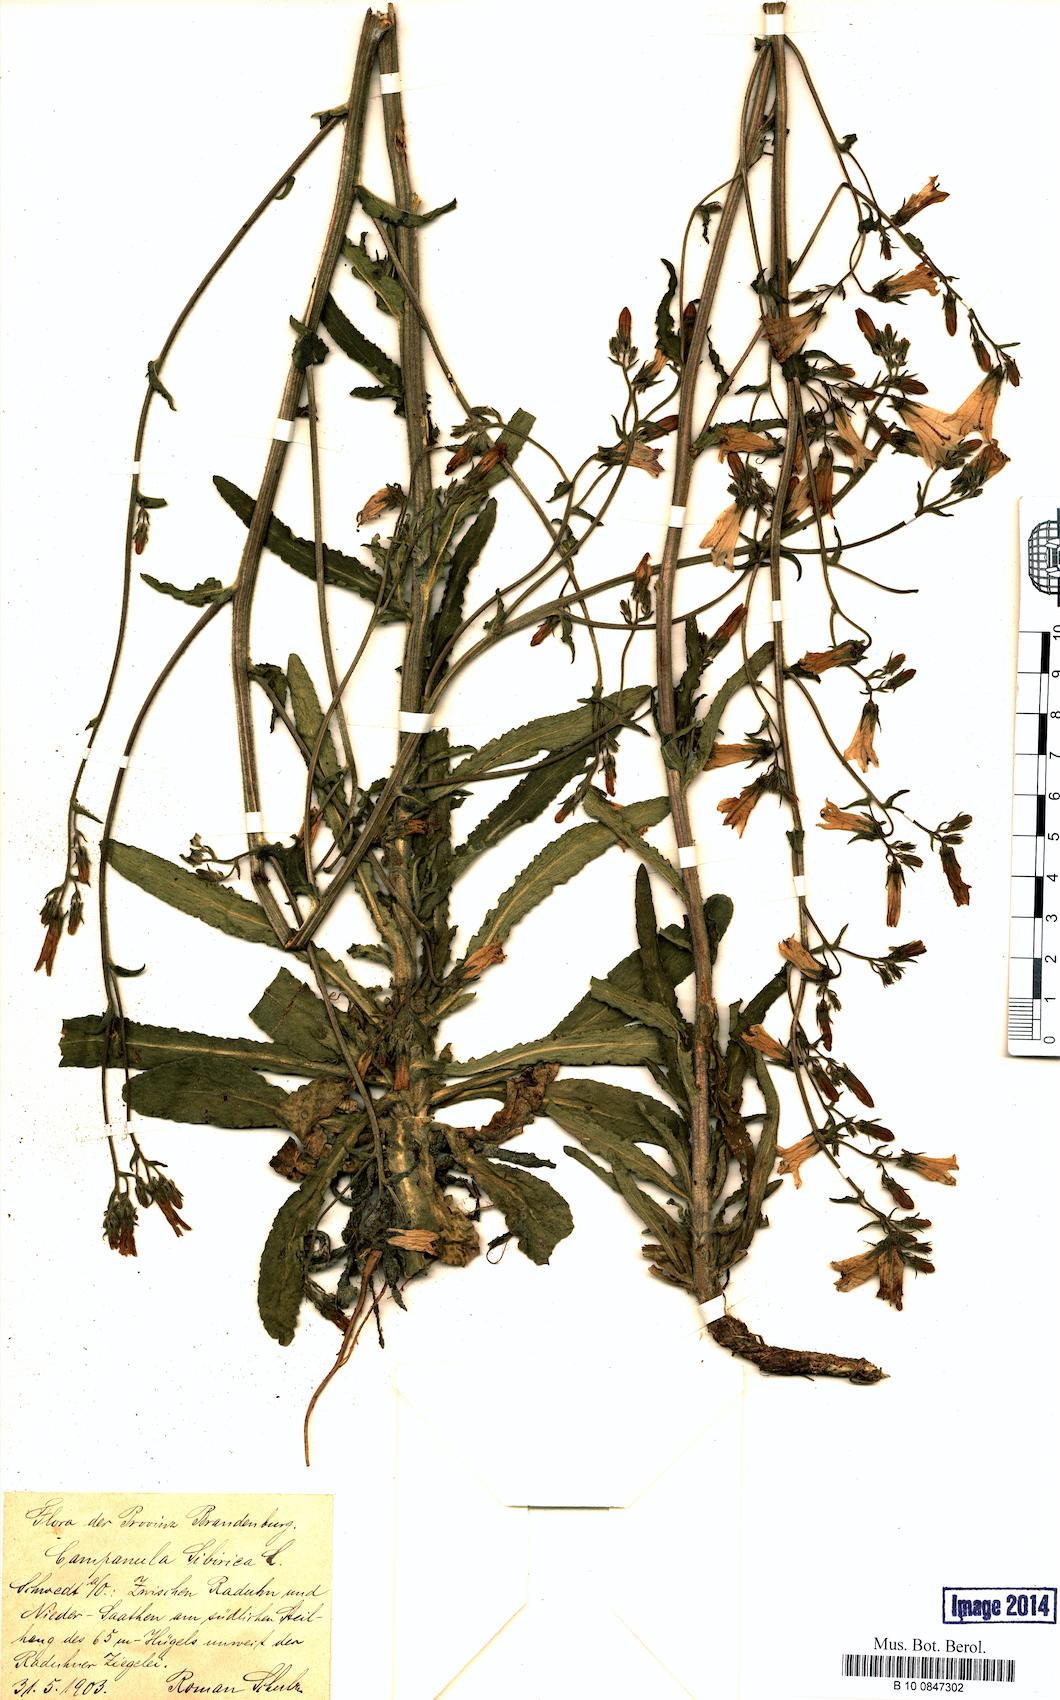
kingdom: Plantae
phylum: Tracheophyta
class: Magnoliopsida
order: Asterales
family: Campanulaceae
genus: Campanula
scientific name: Campanula sibirica
